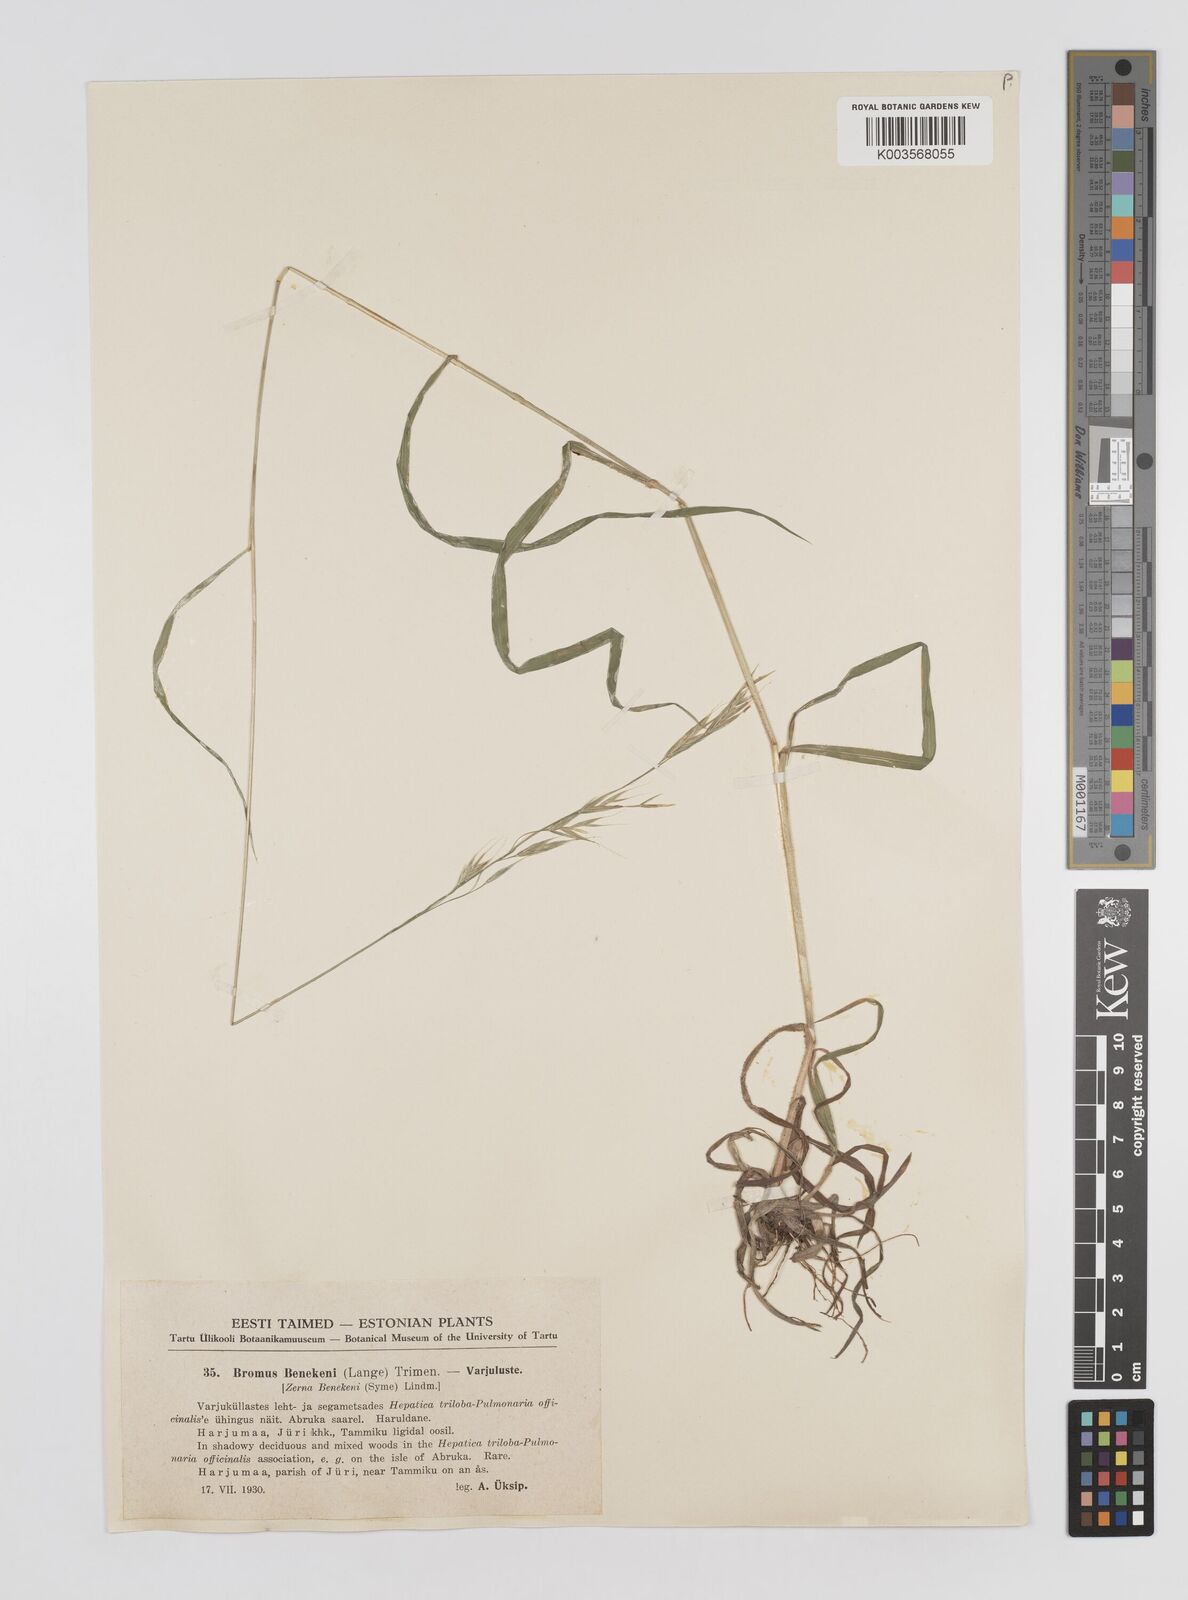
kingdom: Plantae
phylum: Tracheophyta
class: Liliopsida
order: Poales
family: Poaceae
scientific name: Poaceae
